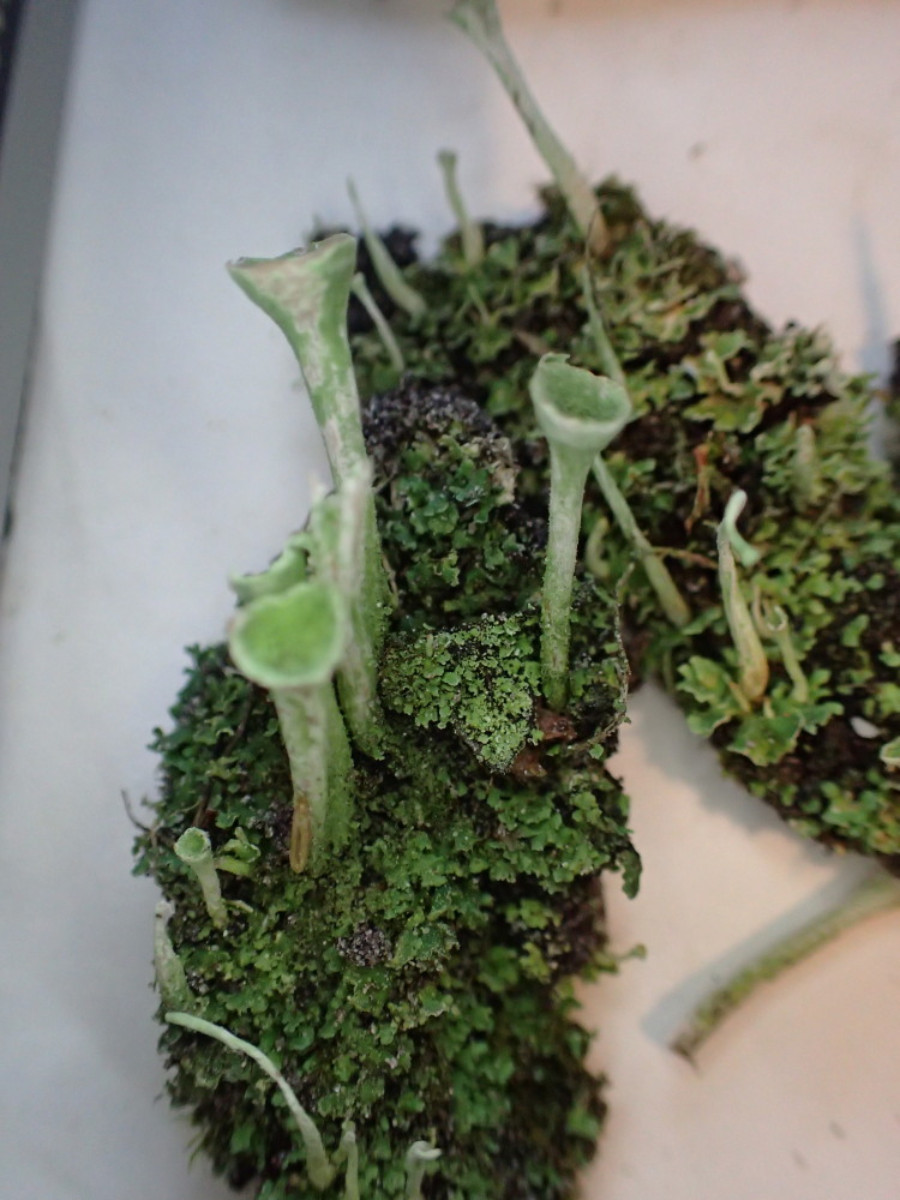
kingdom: Fungi
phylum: Ascomycota
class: Lecanoromycetes
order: Lecanorales
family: Cladoniaceae
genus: Cladonia
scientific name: Cladonia fimbriata
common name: bleggrøn bægerlav
